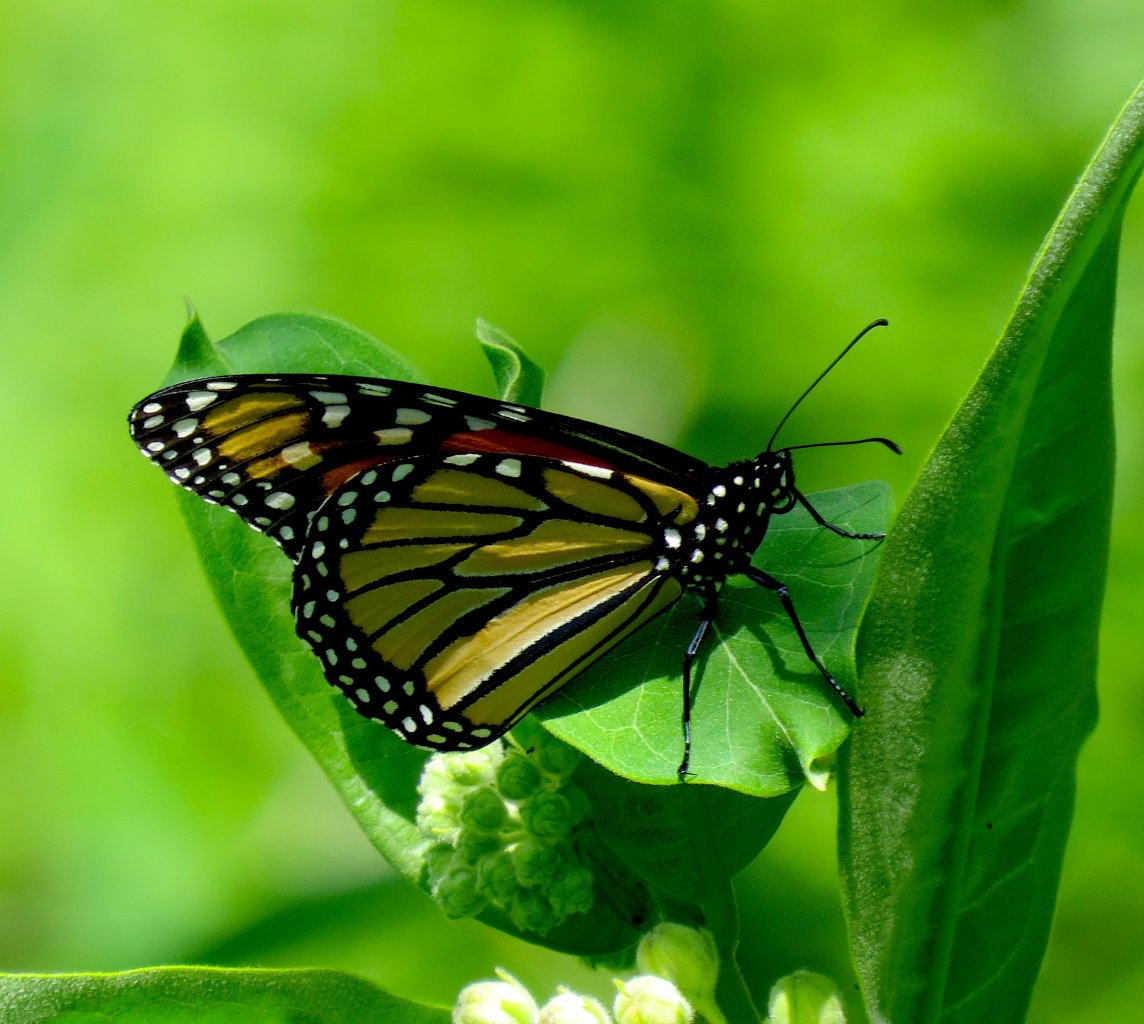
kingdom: Animalia
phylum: Arthropoda
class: Insecta
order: Lepidoptera
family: Nymphalidae
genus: Danaus
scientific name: Danaus plexippus
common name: Monarch
